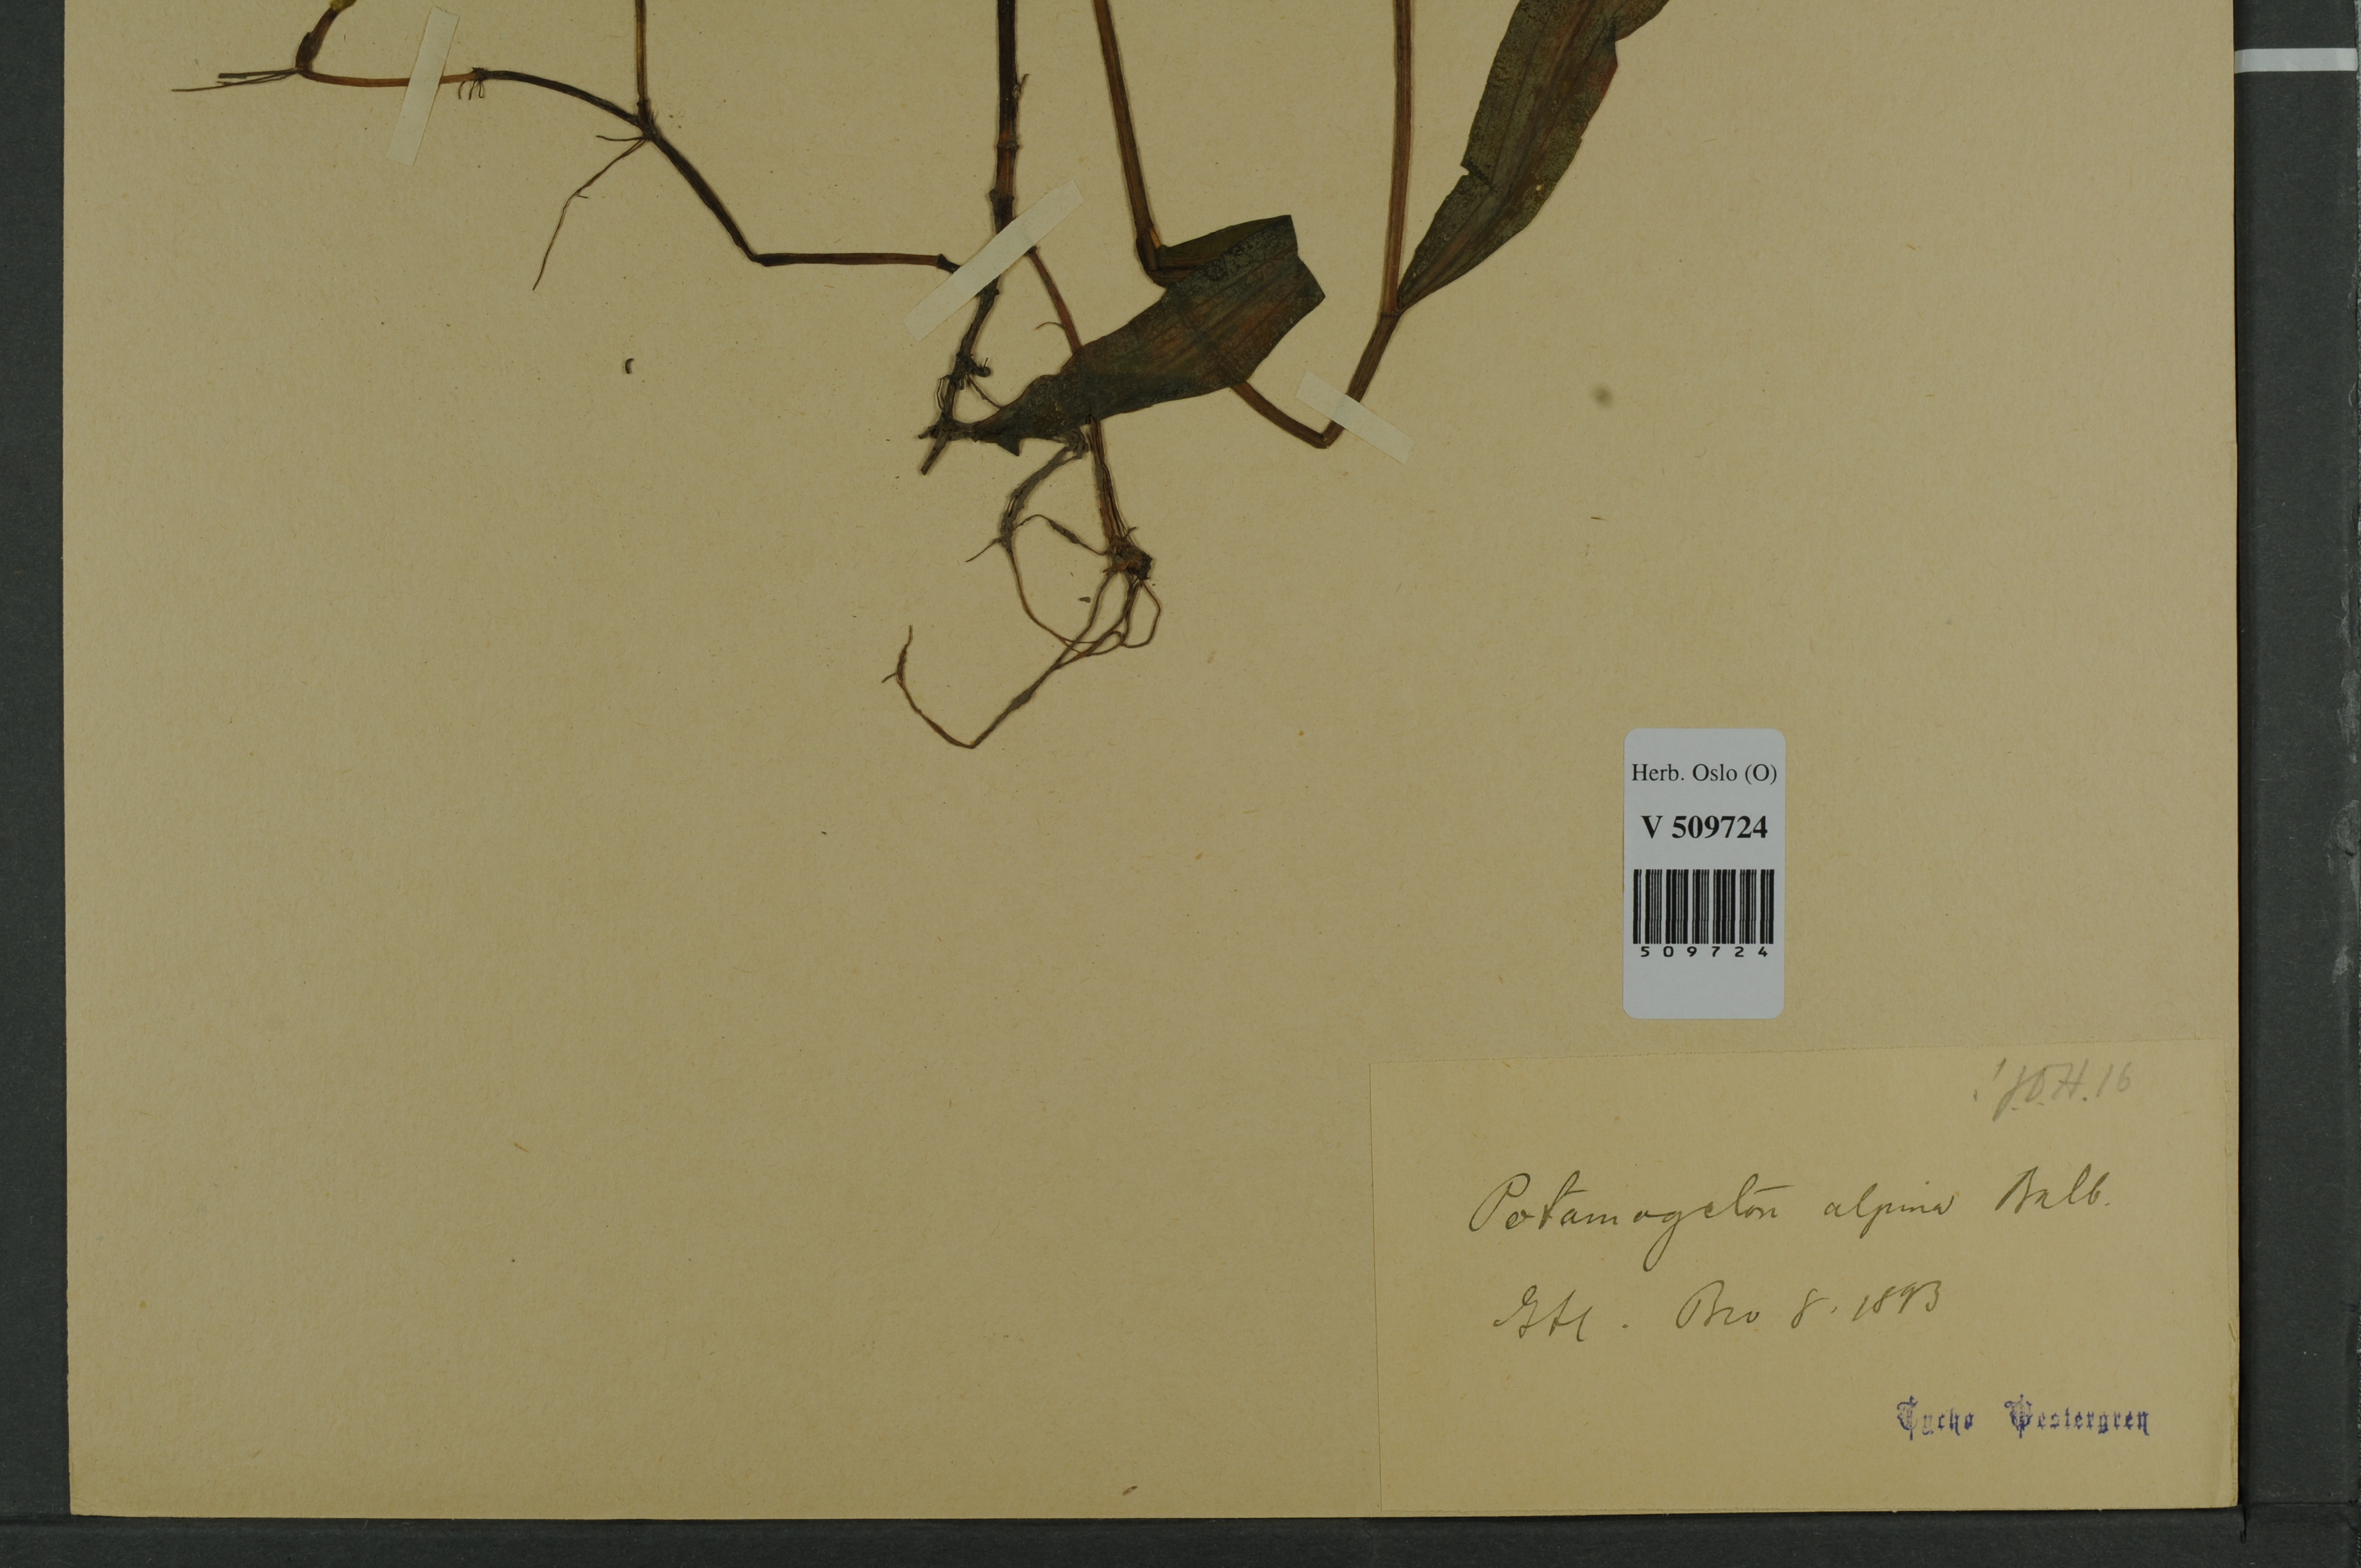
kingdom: Plantae
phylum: Tracheophyta
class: Liliopsida
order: Alismatales
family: Potamogetonaceae
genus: Potamogeton
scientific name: Potamogeton alpinus
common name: Red pondweed
